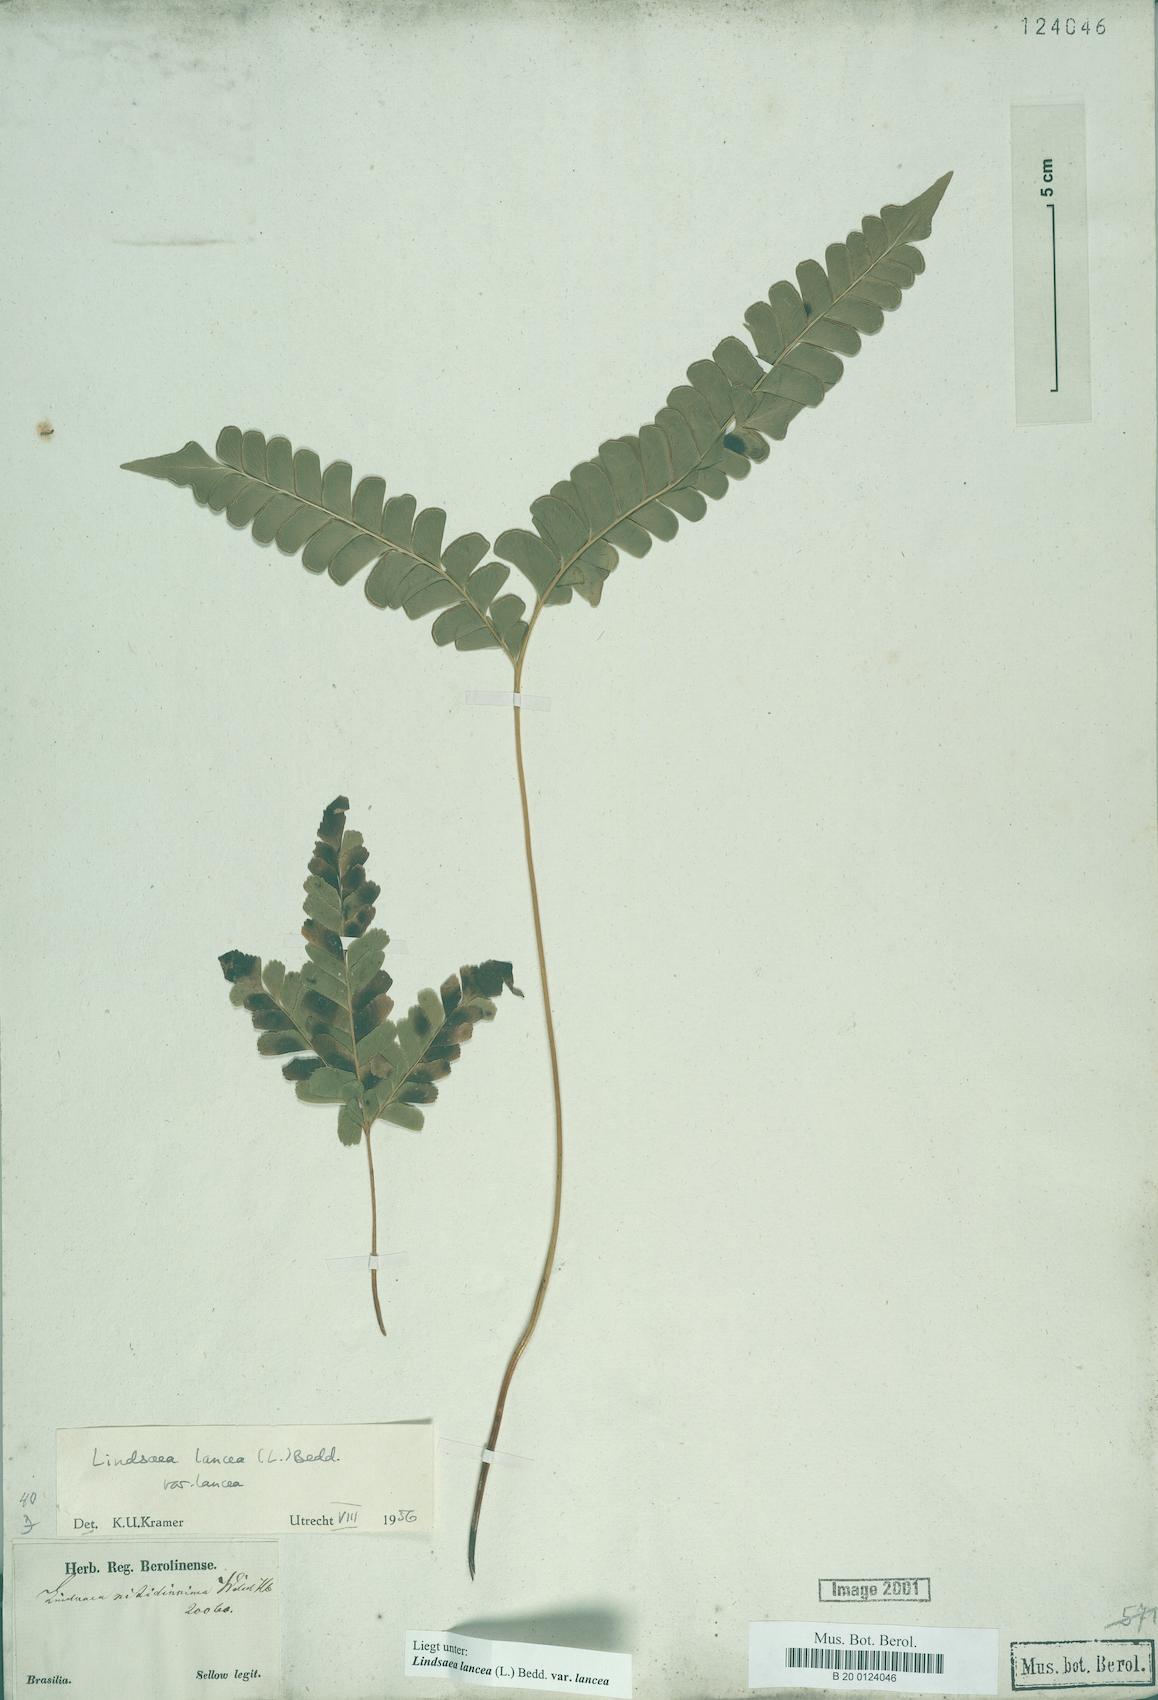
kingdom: Plantae
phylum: Tracheophyta
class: Polypodiopsida
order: Polypodiales
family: Lindsaeaceae
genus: Lindsaea
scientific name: Lindsaea lancea
